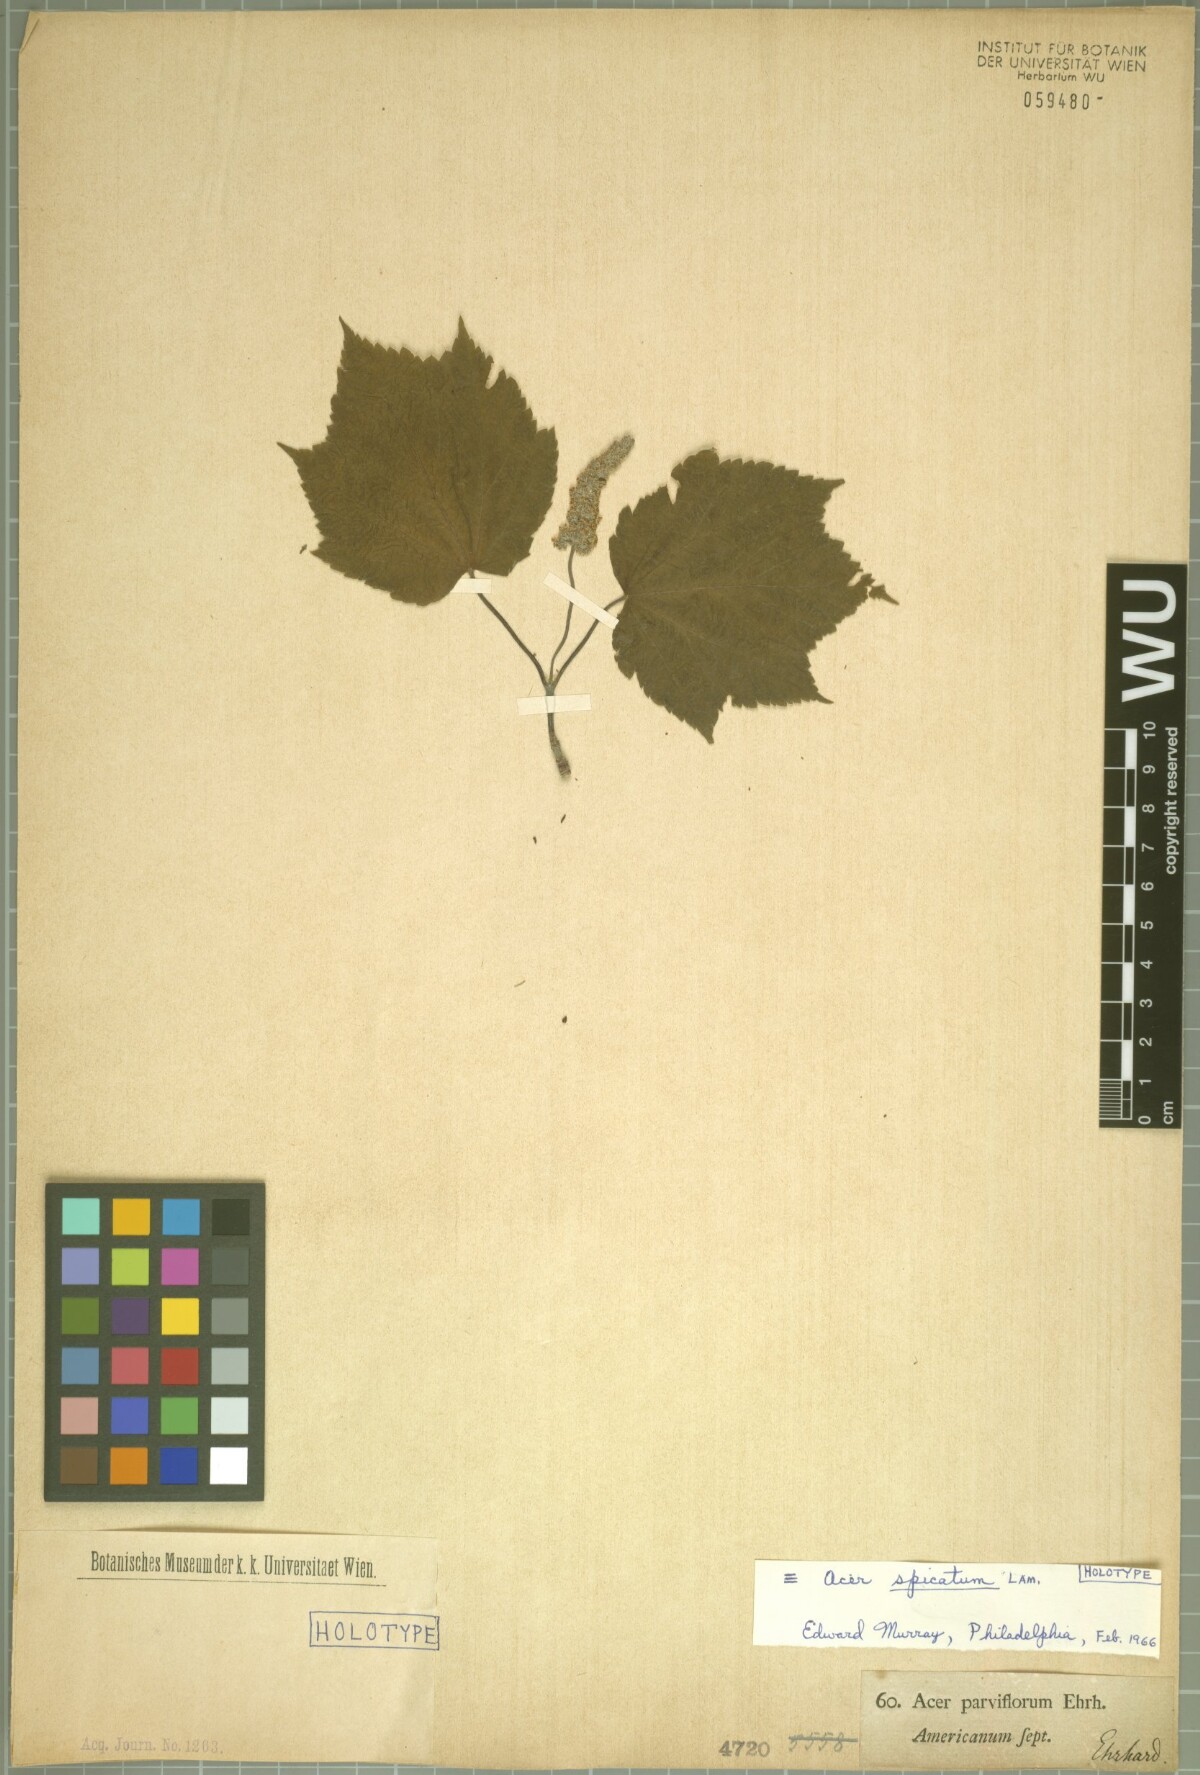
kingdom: Plantae
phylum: Tracheophyta
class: Magnoliopsida
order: Sapindales
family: Sapindaceae
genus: Acer
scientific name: Acer spicatum
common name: Mountain maple
